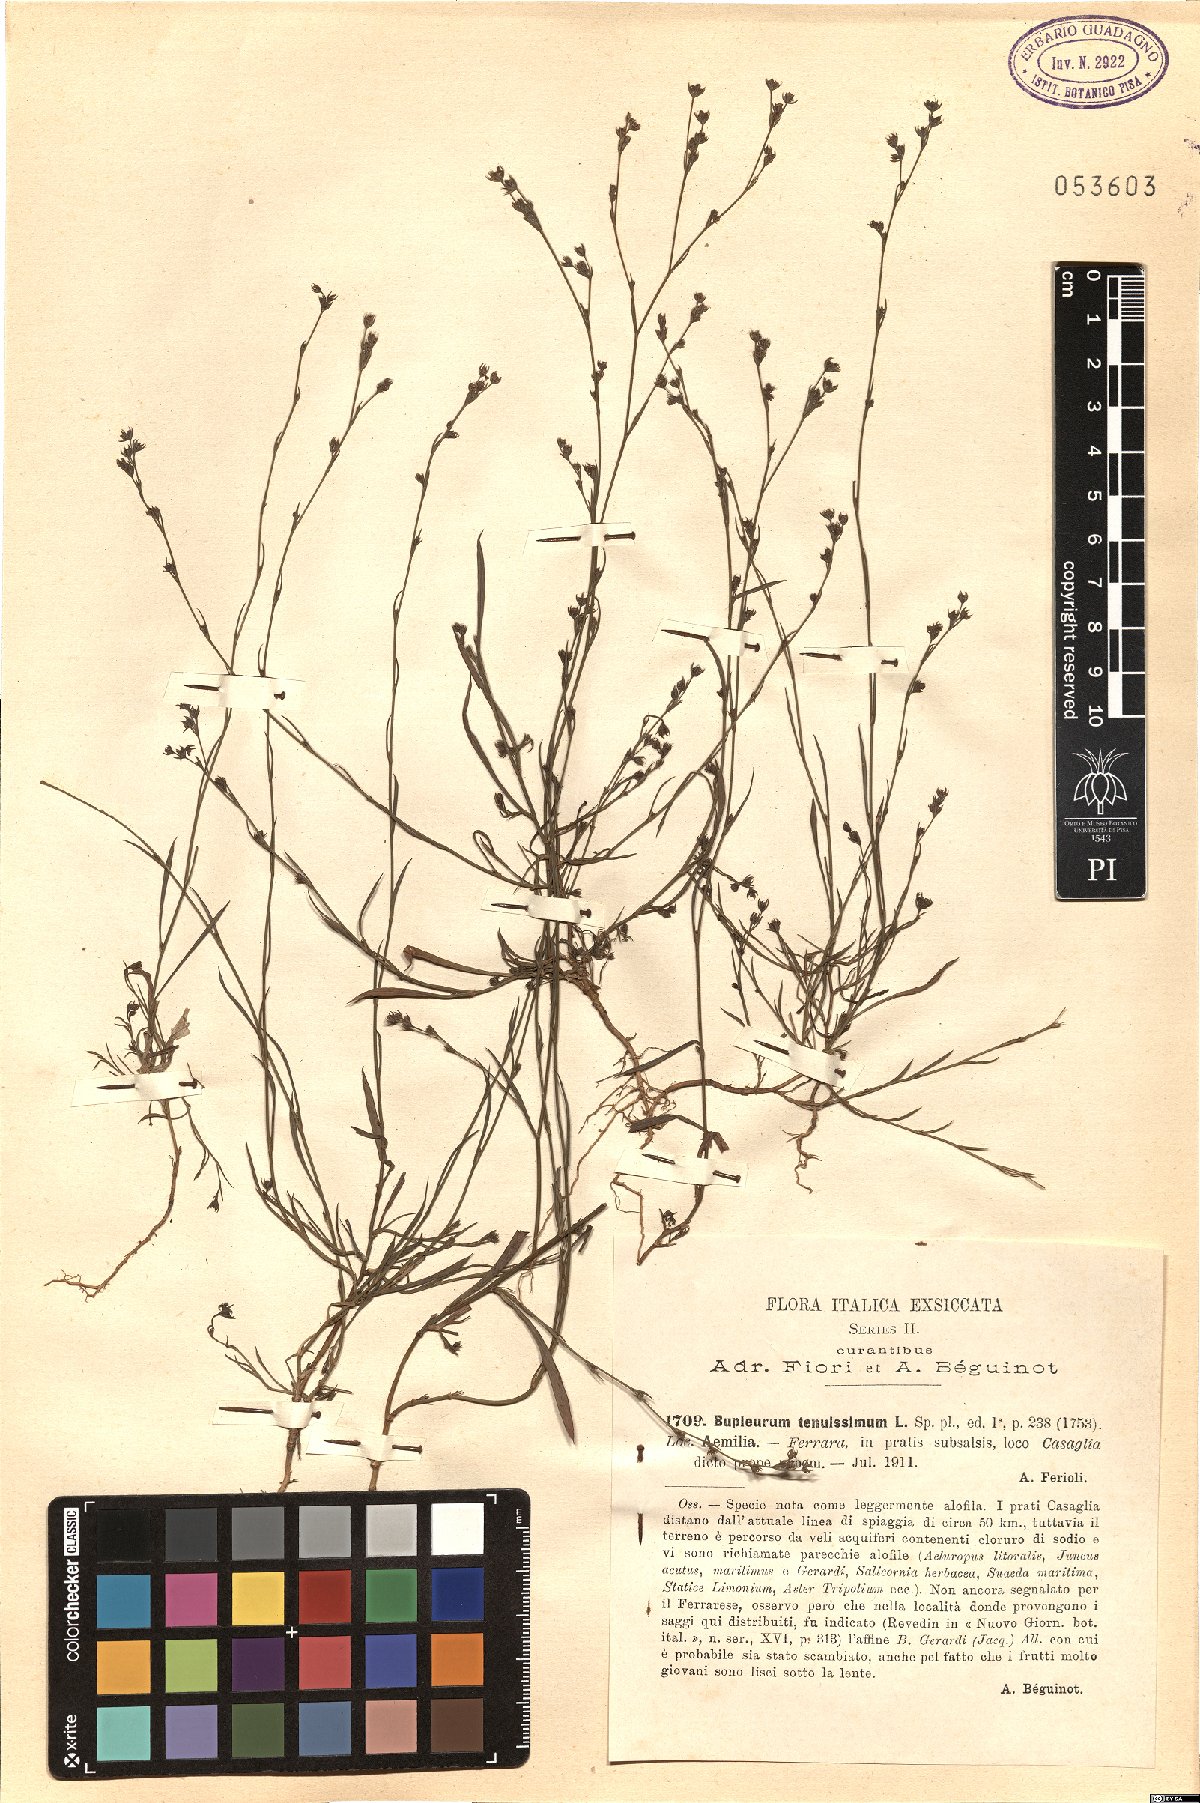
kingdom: Plantae
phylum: Tracheophyta
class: Magnoliopsida
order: Apiales
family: Apiaceae
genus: Bupleurum
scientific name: Bupleurum tenuissimum
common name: Slender hare's-ear
